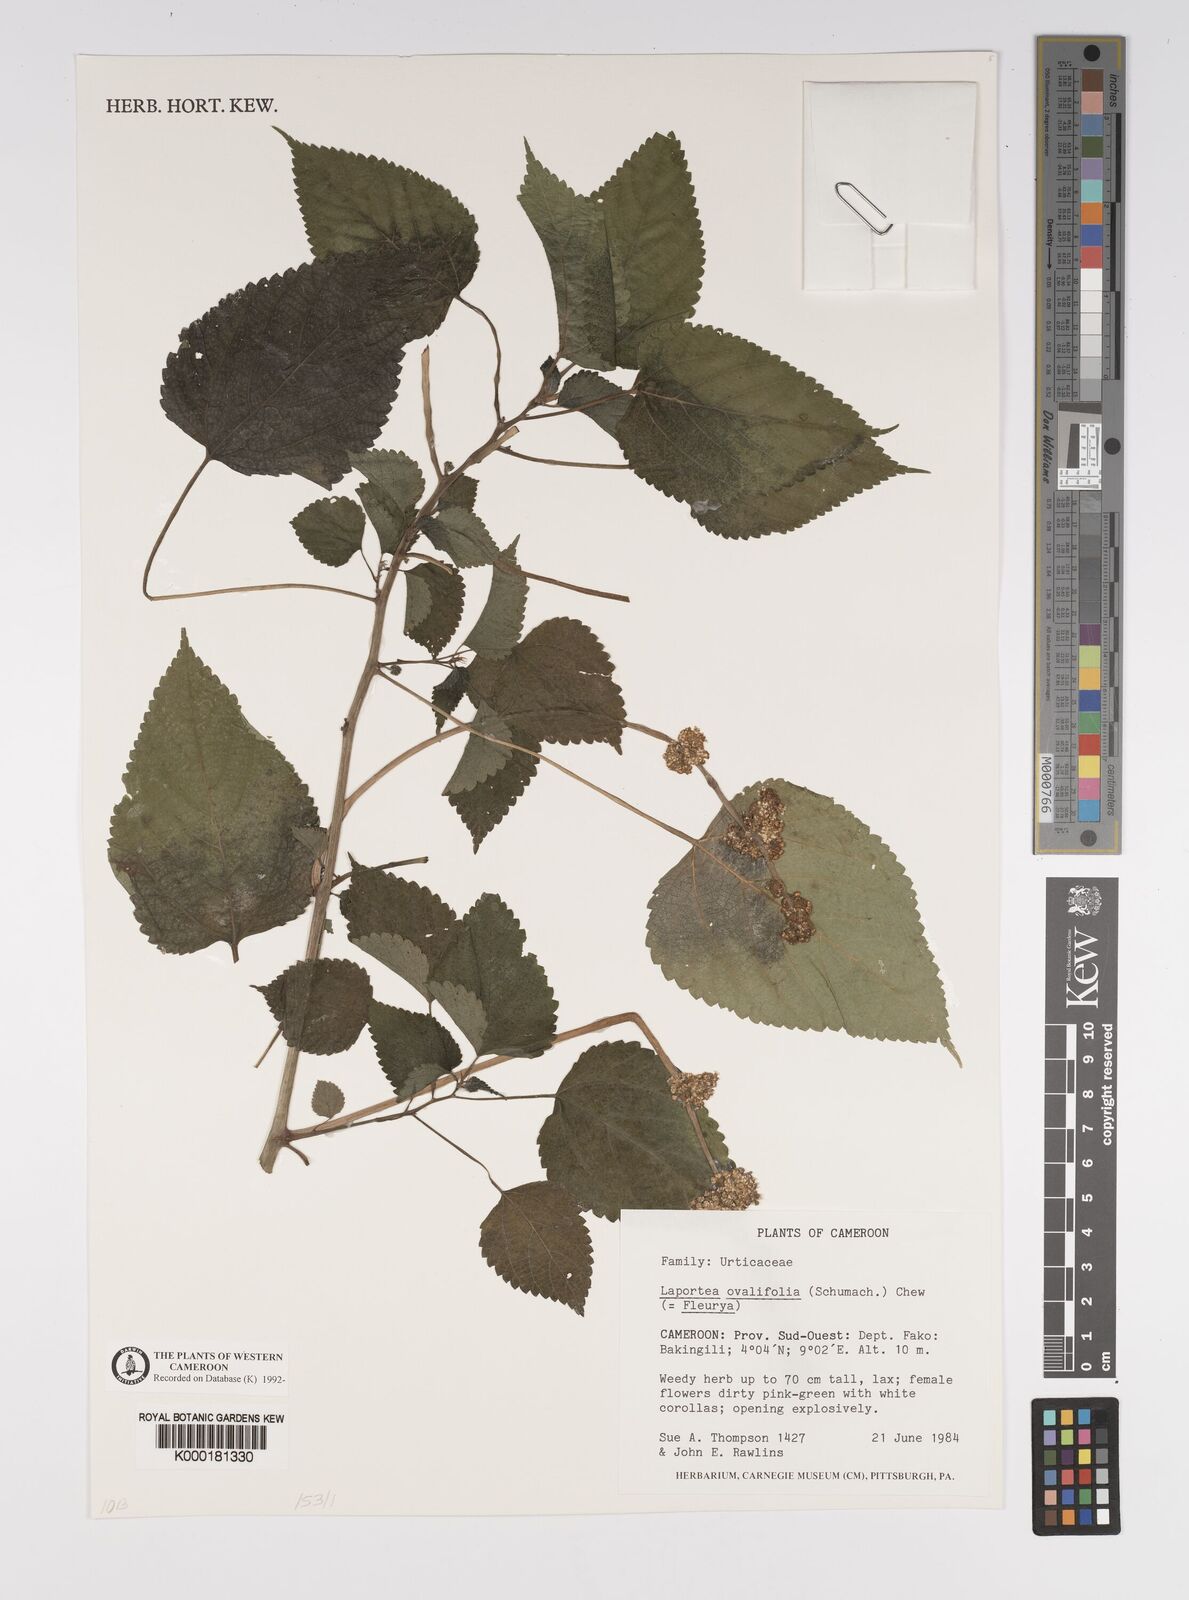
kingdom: Plantae
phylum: Tracheophyta
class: Magnoliopsida
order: Rosales
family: Urticaceae
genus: Laportea
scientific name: Laportea ovalifolia
